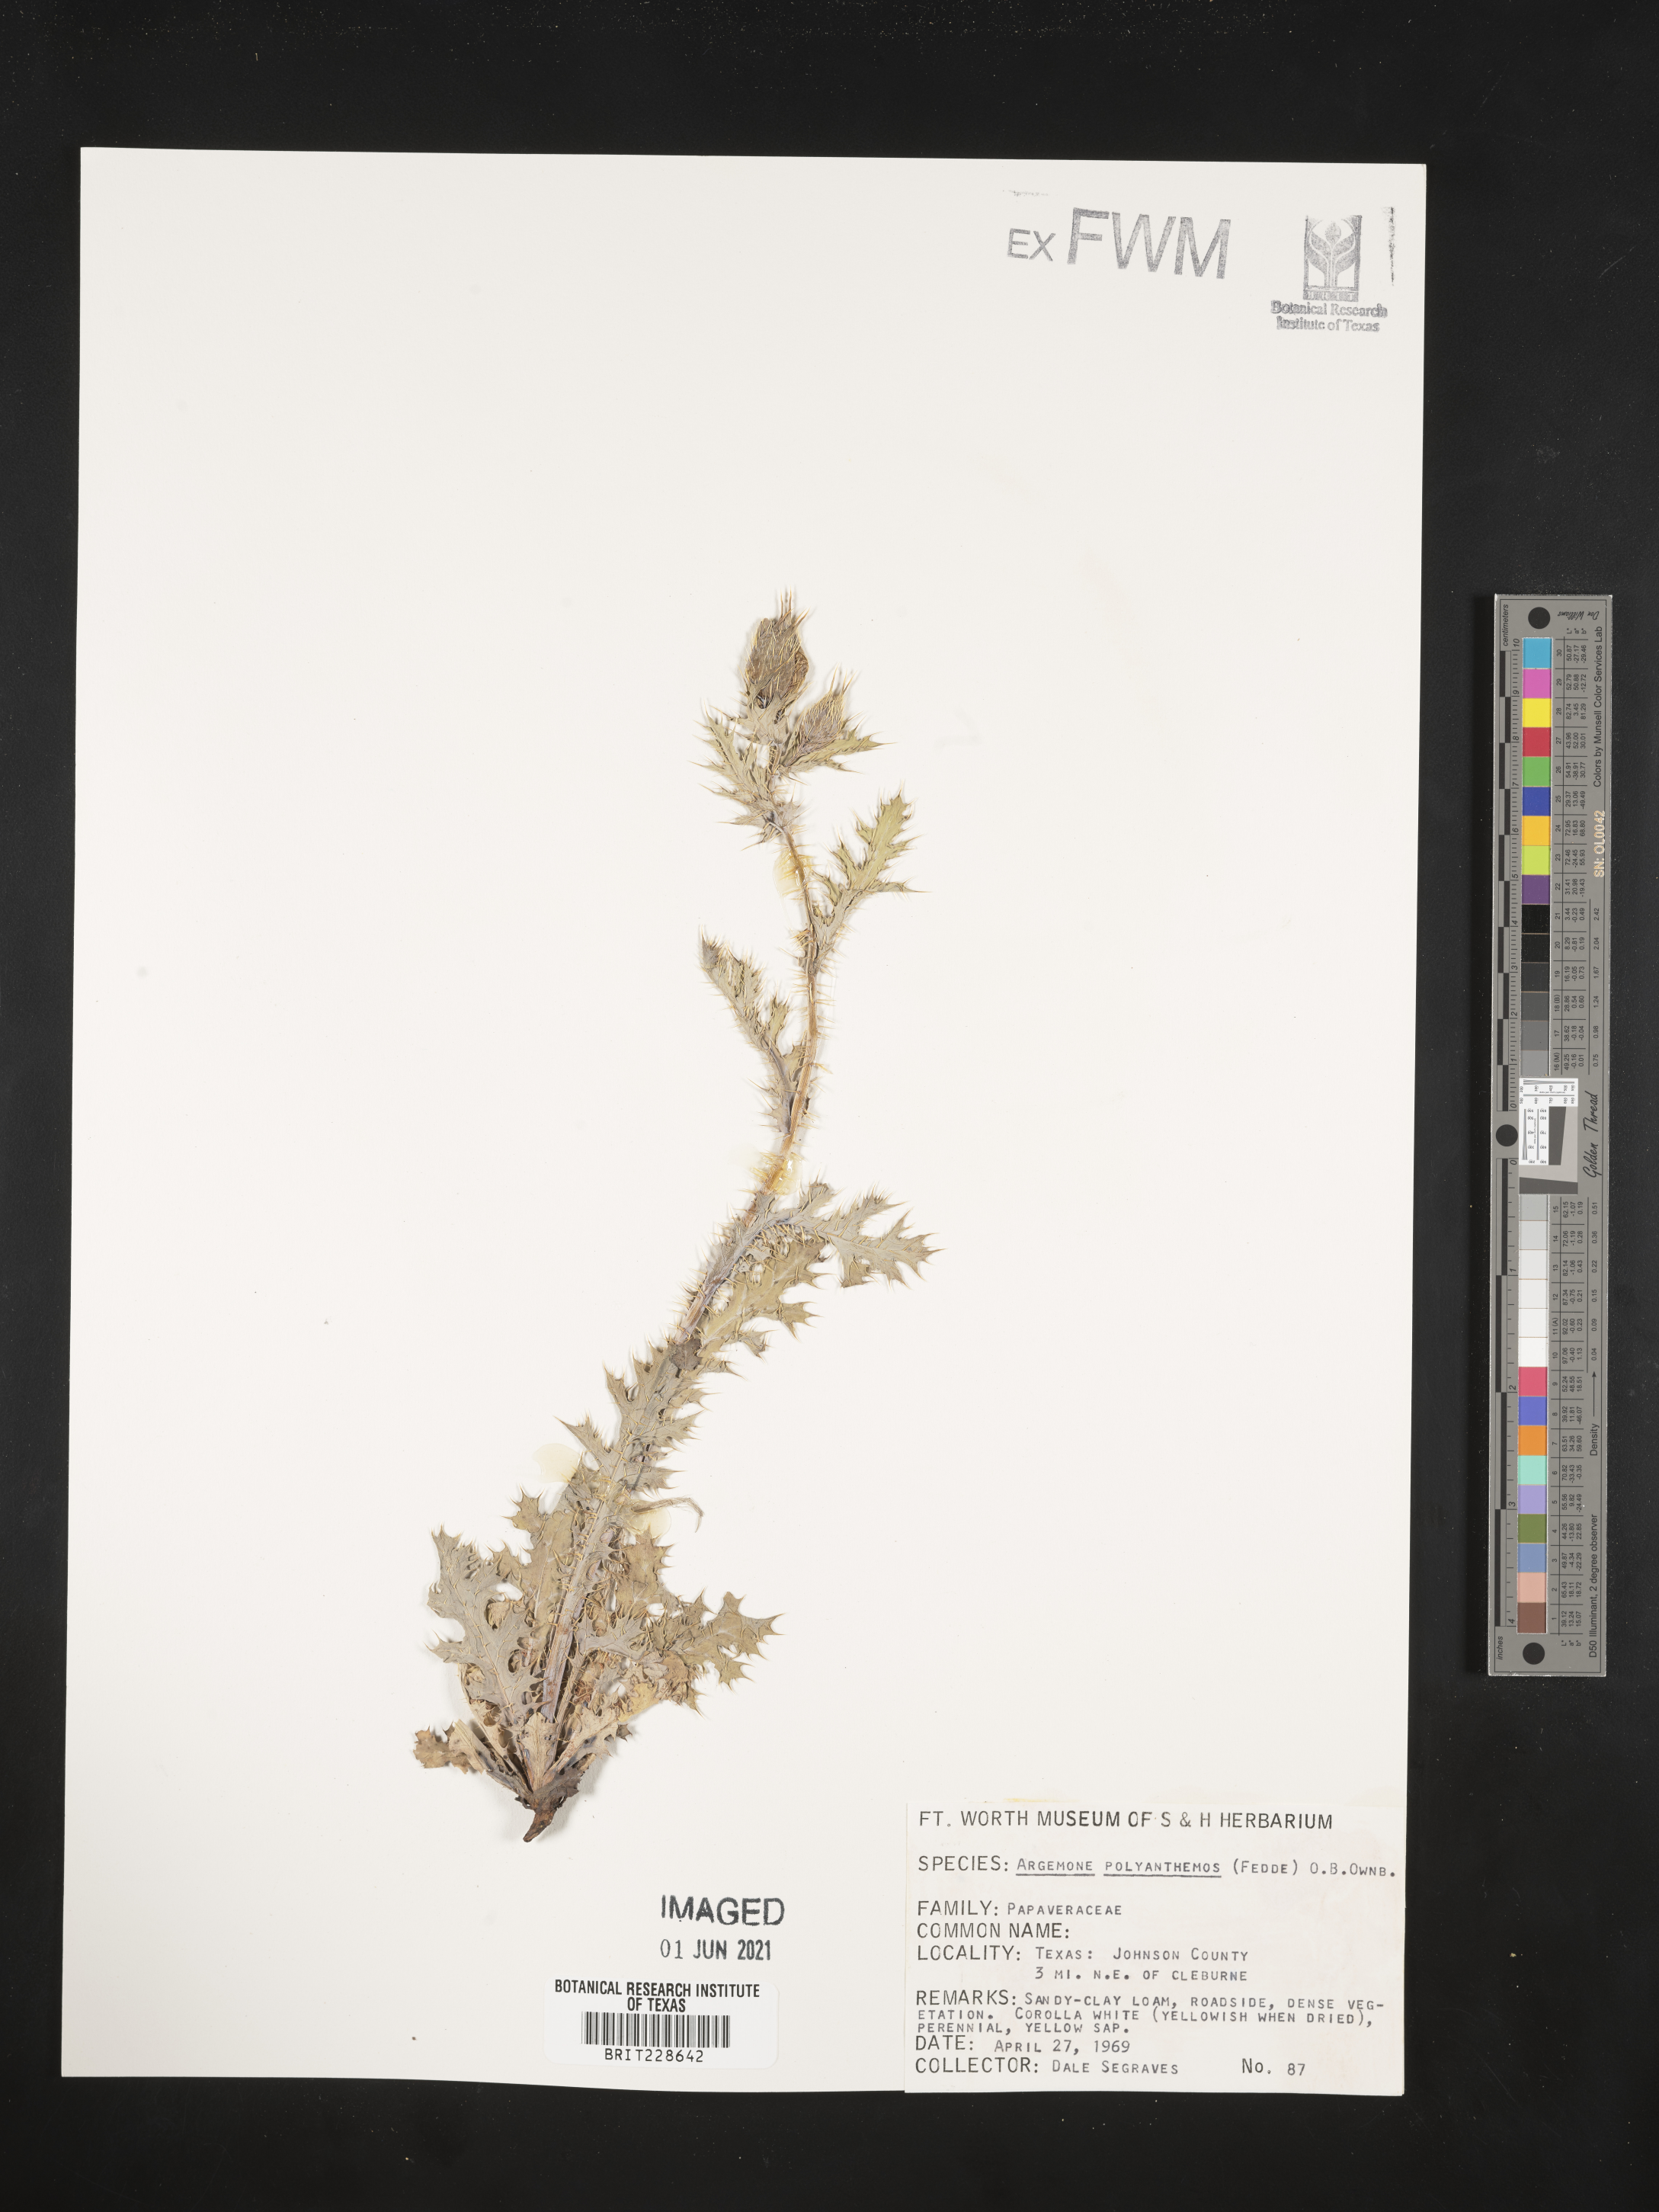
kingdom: Plantae
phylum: Tracheophyta
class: Magnoliopsida
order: Ranunculales
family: Papaveraceae
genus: Argemone
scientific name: Argemone polyanthemos
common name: Plains prickly-poppy
